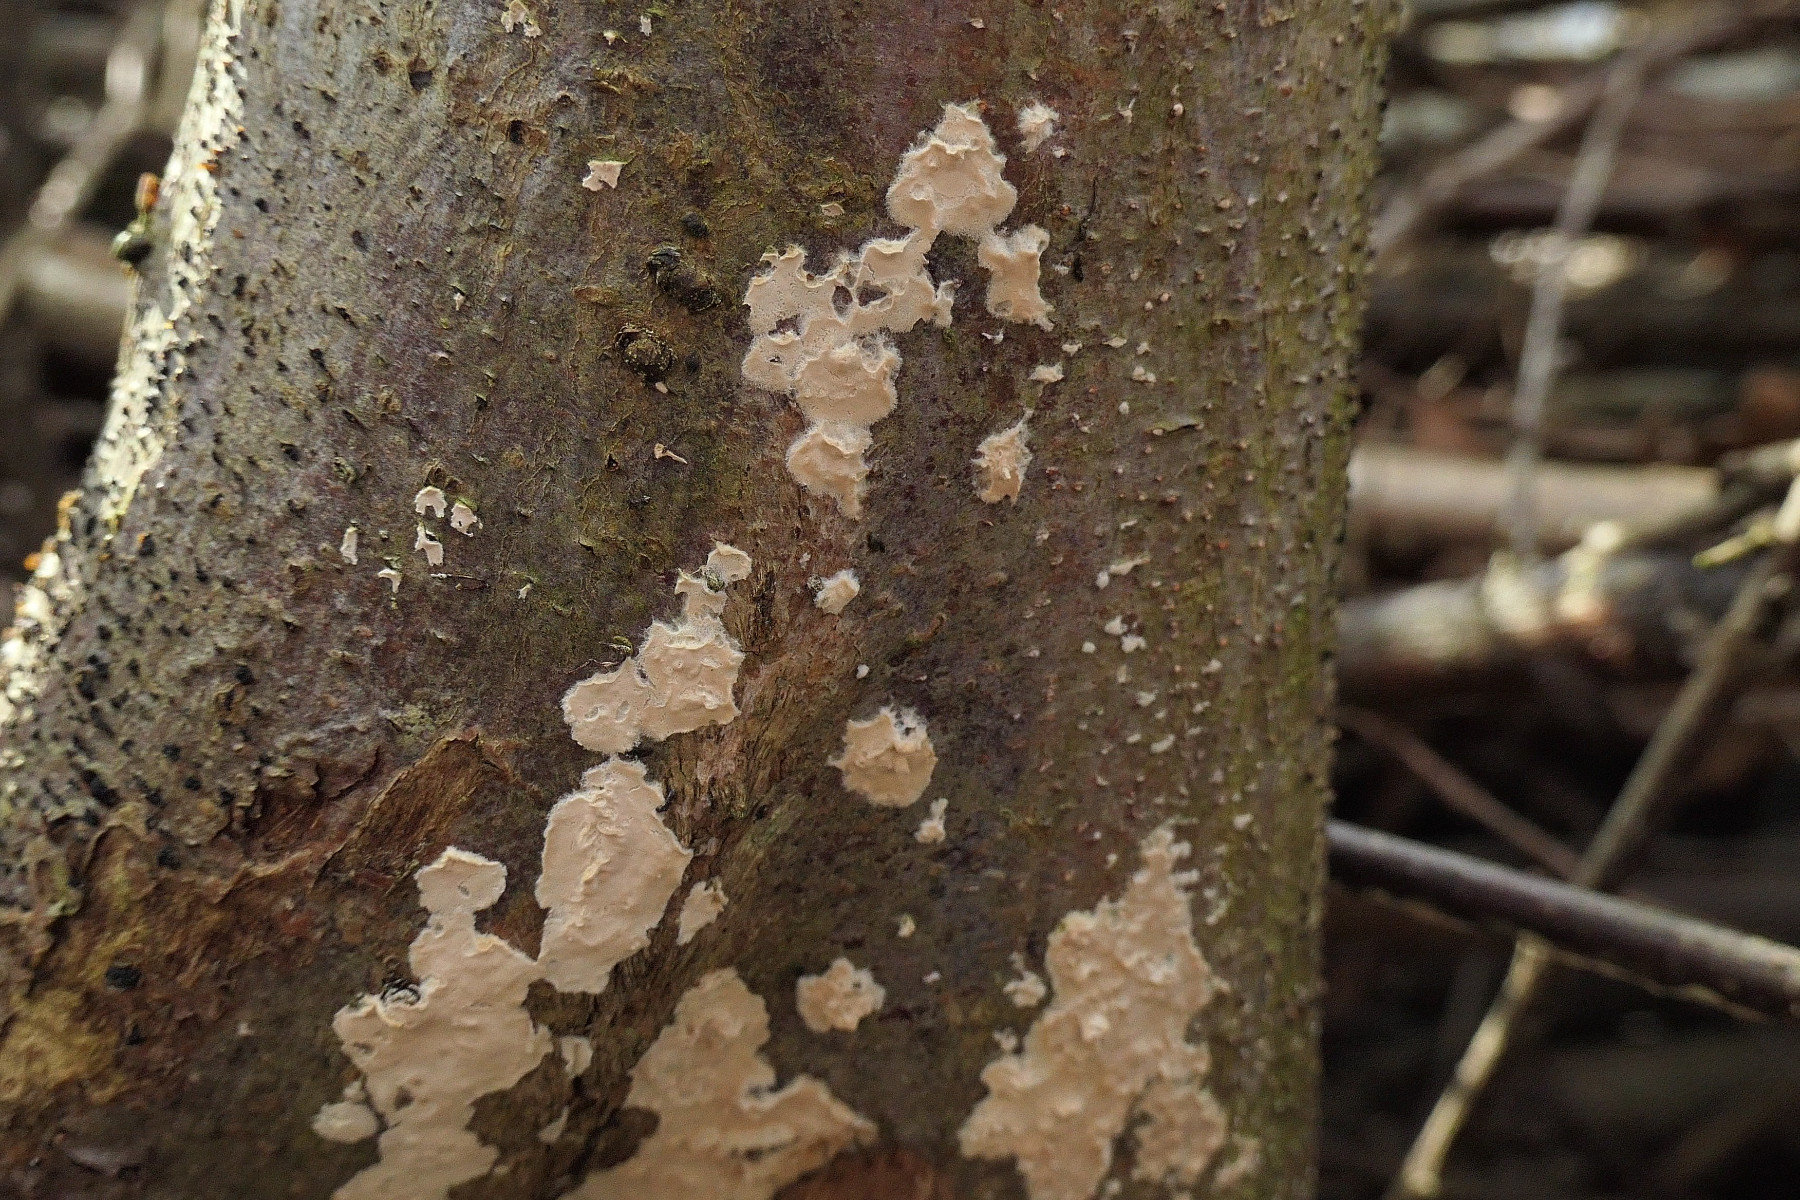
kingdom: Fungi
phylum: Basidiomycota
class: Agaricomycetes
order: Agaricales
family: Physalacriaceae
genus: Cylindrobasidium
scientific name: Cylindrobasidium evolvens
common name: sprækkehinde
